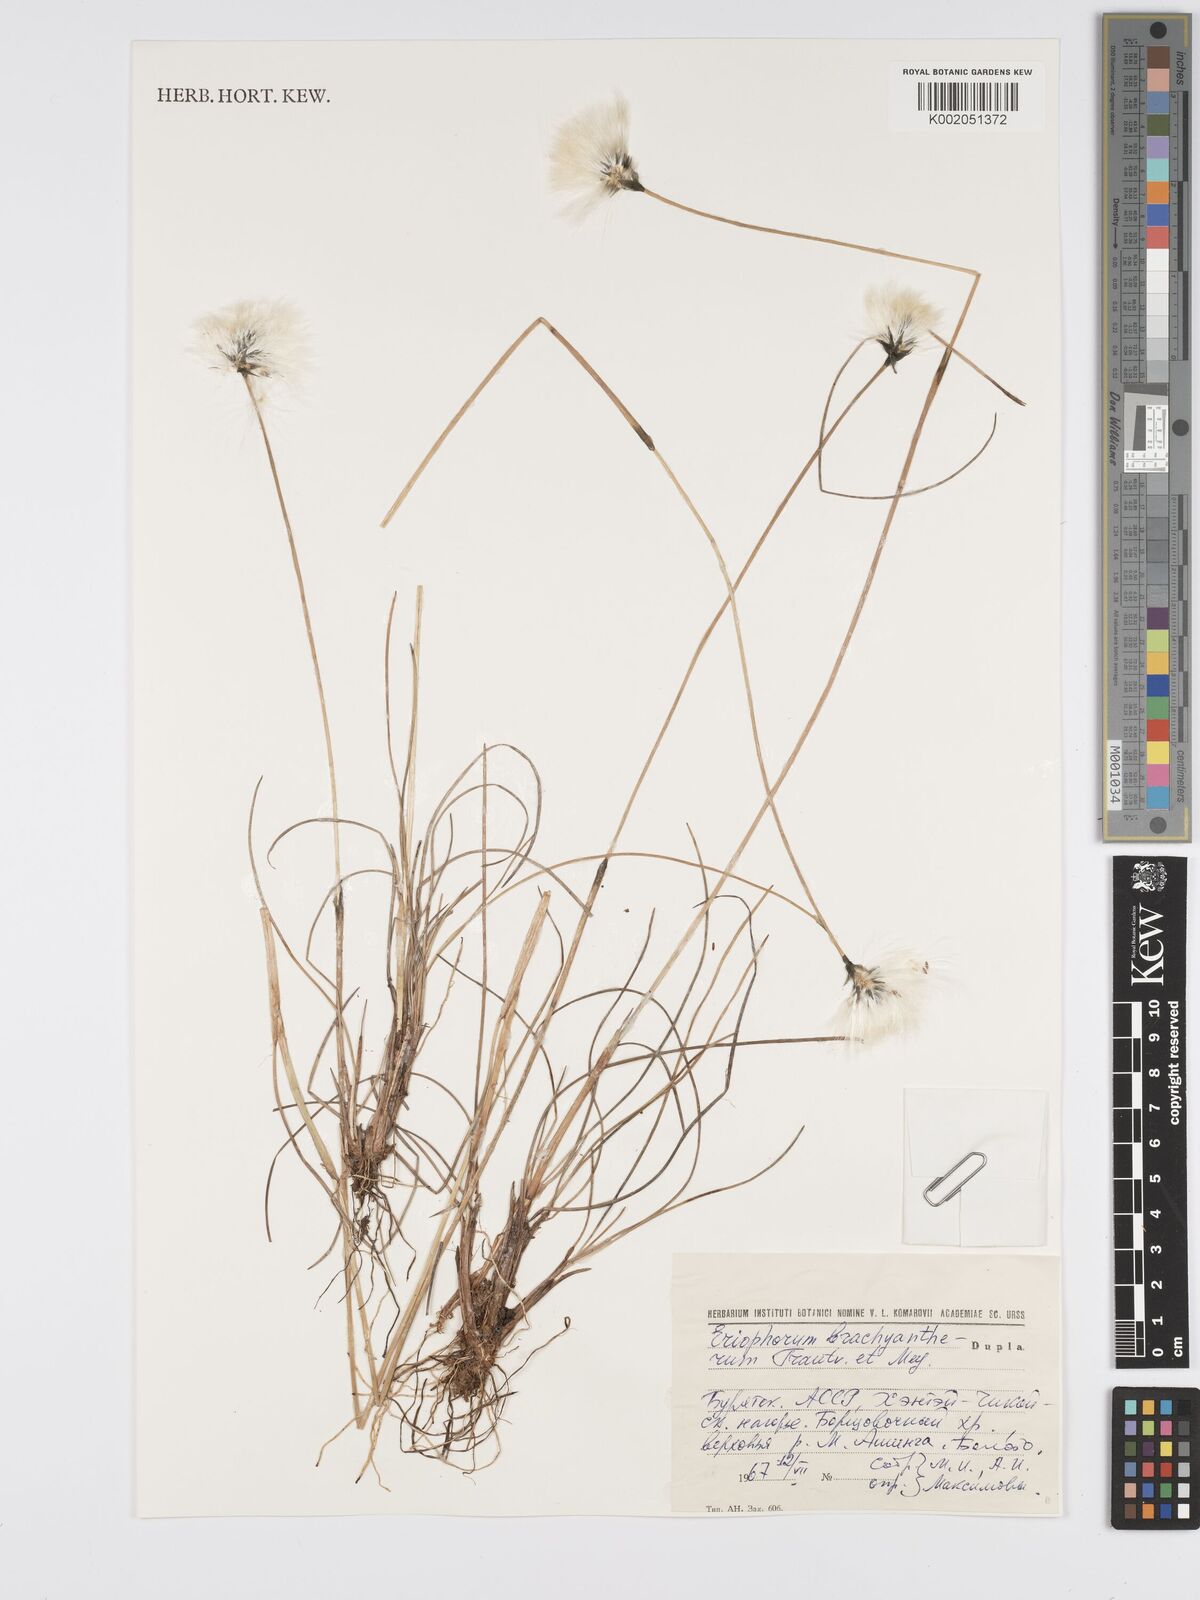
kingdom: Plantae
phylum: Tracheophyta
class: Liliopsida
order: Poales
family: Cyperaceae
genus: Eriophorum
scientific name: Eriophorum brachyantherum
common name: Closed-sheathed cottongrass
